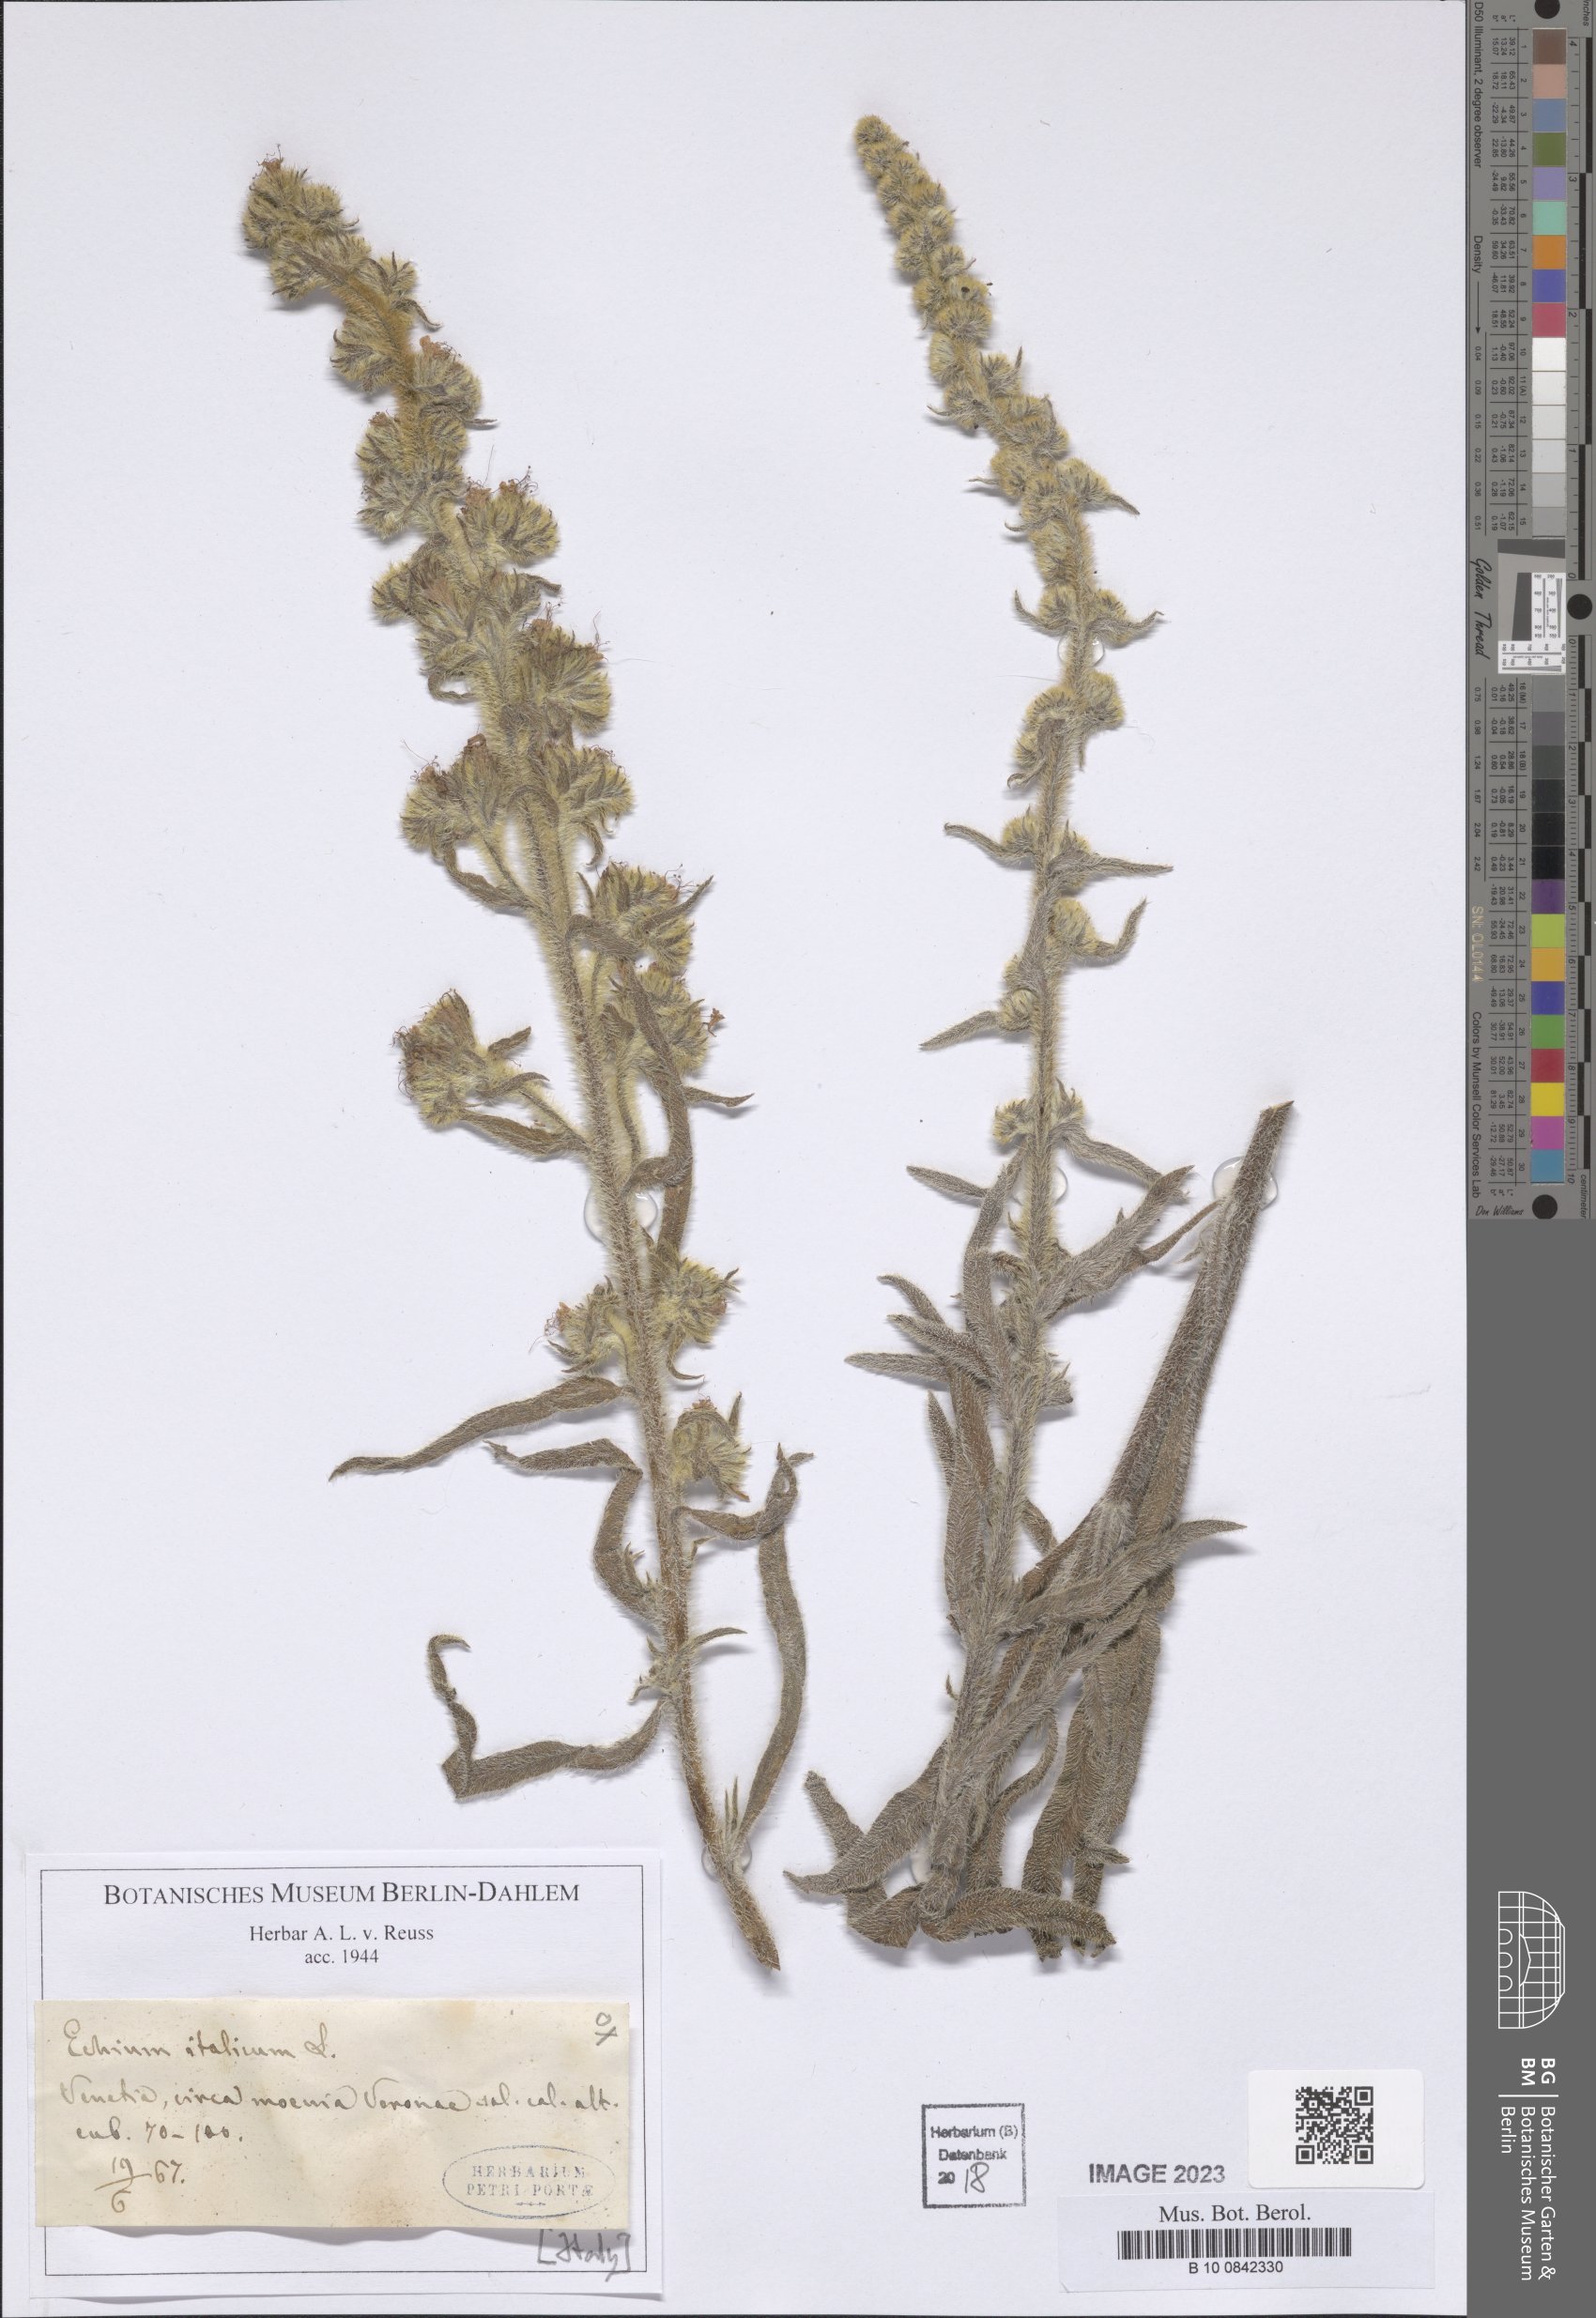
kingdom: Plantae
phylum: Tracheophyta
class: Magnoliopsida
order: Boraginales
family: Boraginaceae
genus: Echium
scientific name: Echium italicum
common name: Italian viper's bugloss
